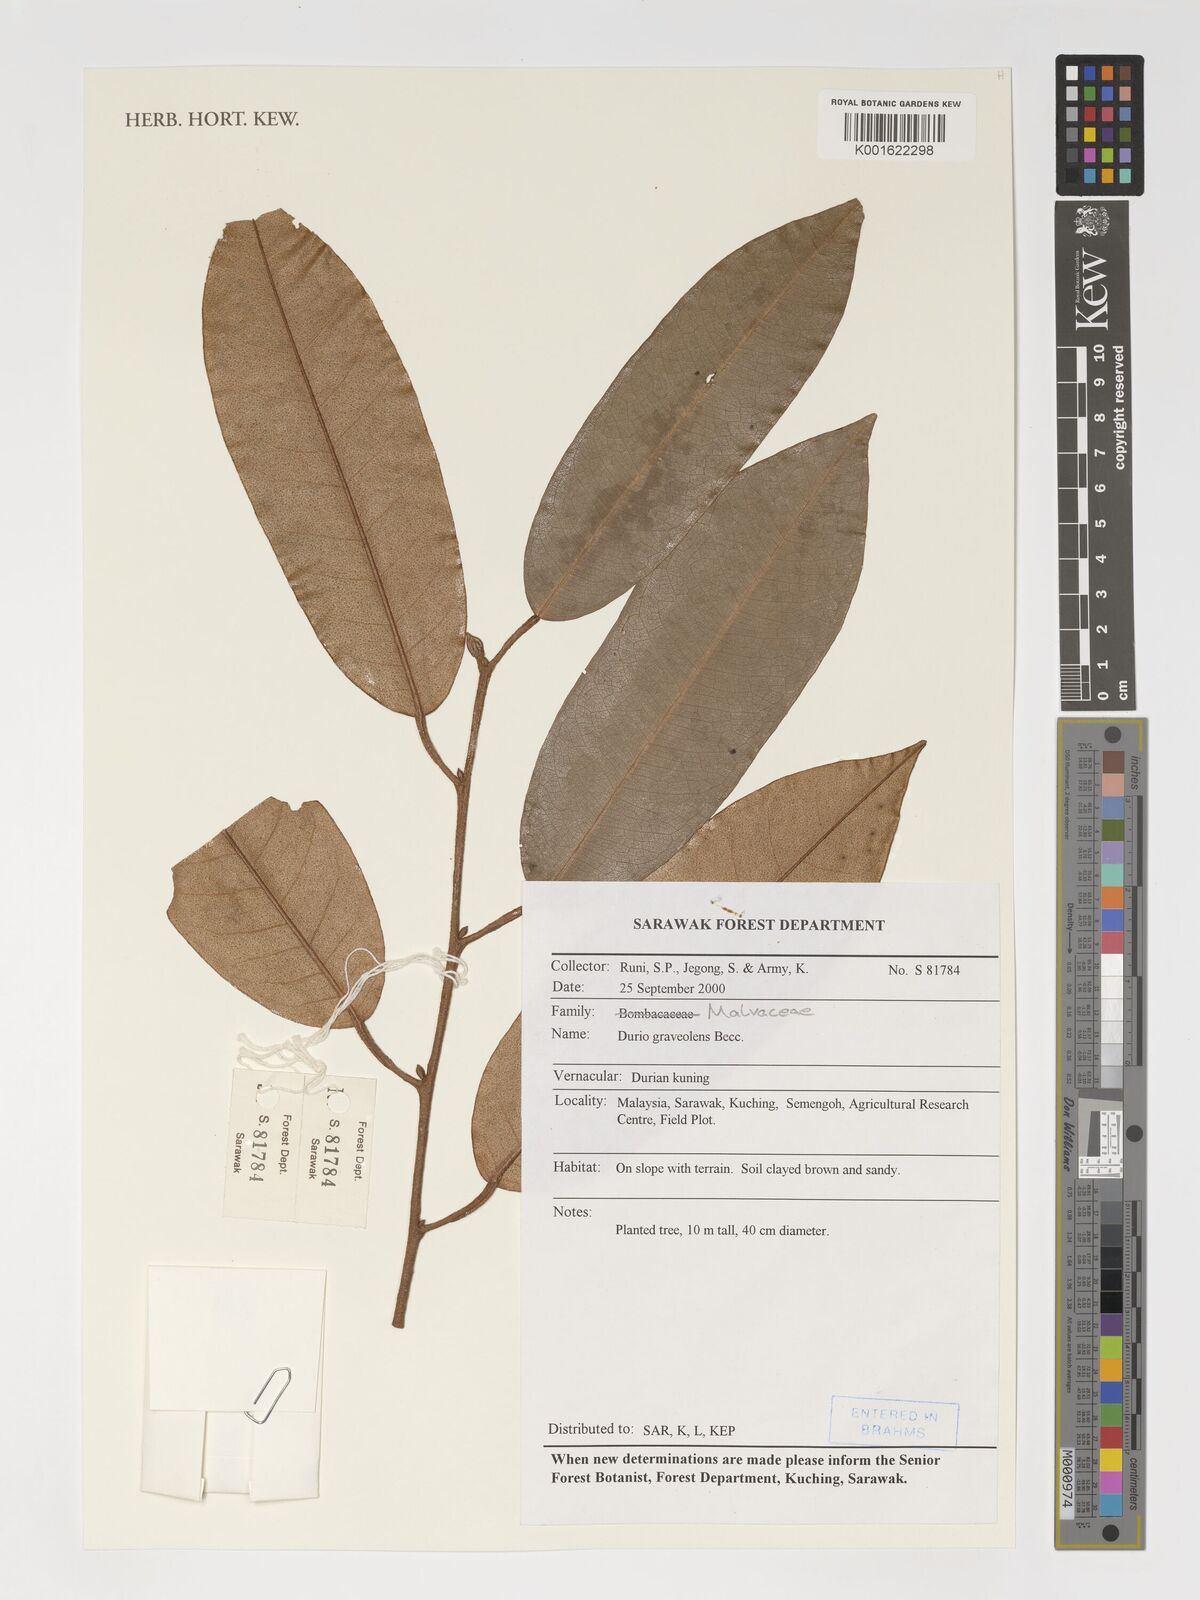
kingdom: Plantae
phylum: Tracheophyta
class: Magnoliopsida
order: Malvales
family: Malvaceae
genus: Durio
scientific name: Durio
